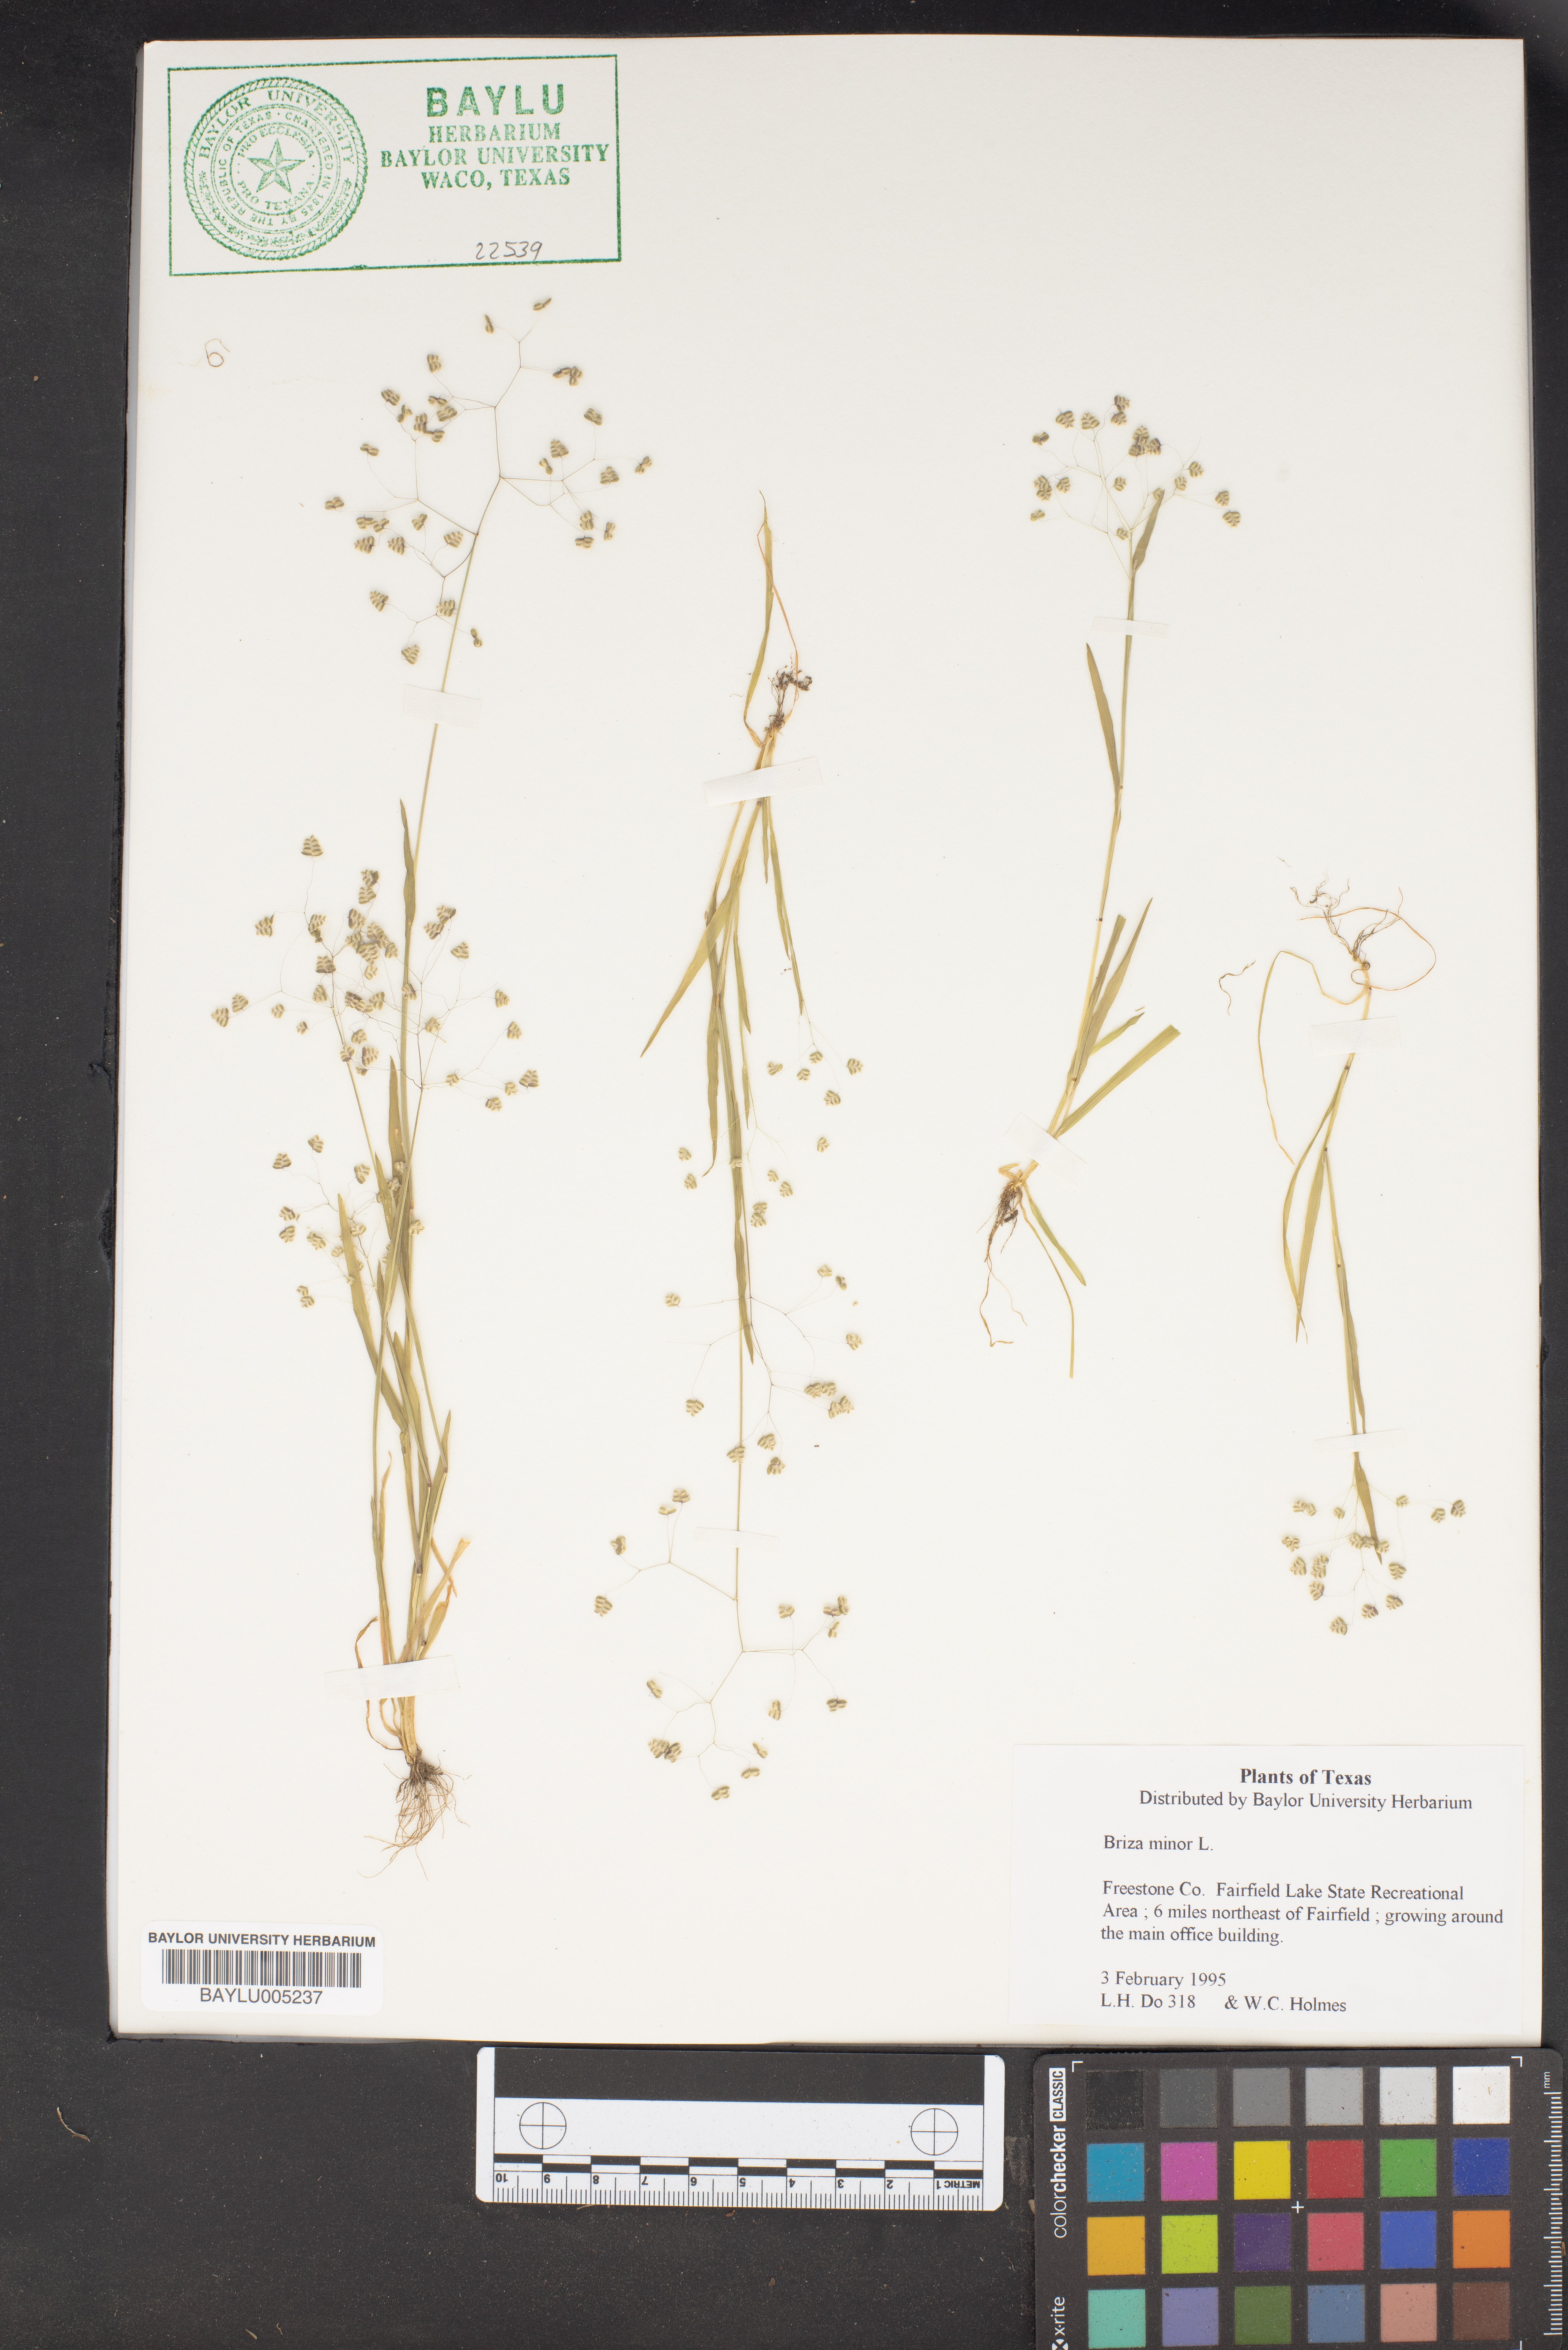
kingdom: Plantae
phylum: Tracheophyta
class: Liliopsida
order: Poales
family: Poaceae
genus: Briza
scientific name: Briza minor
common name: Lesser quaking-grass
